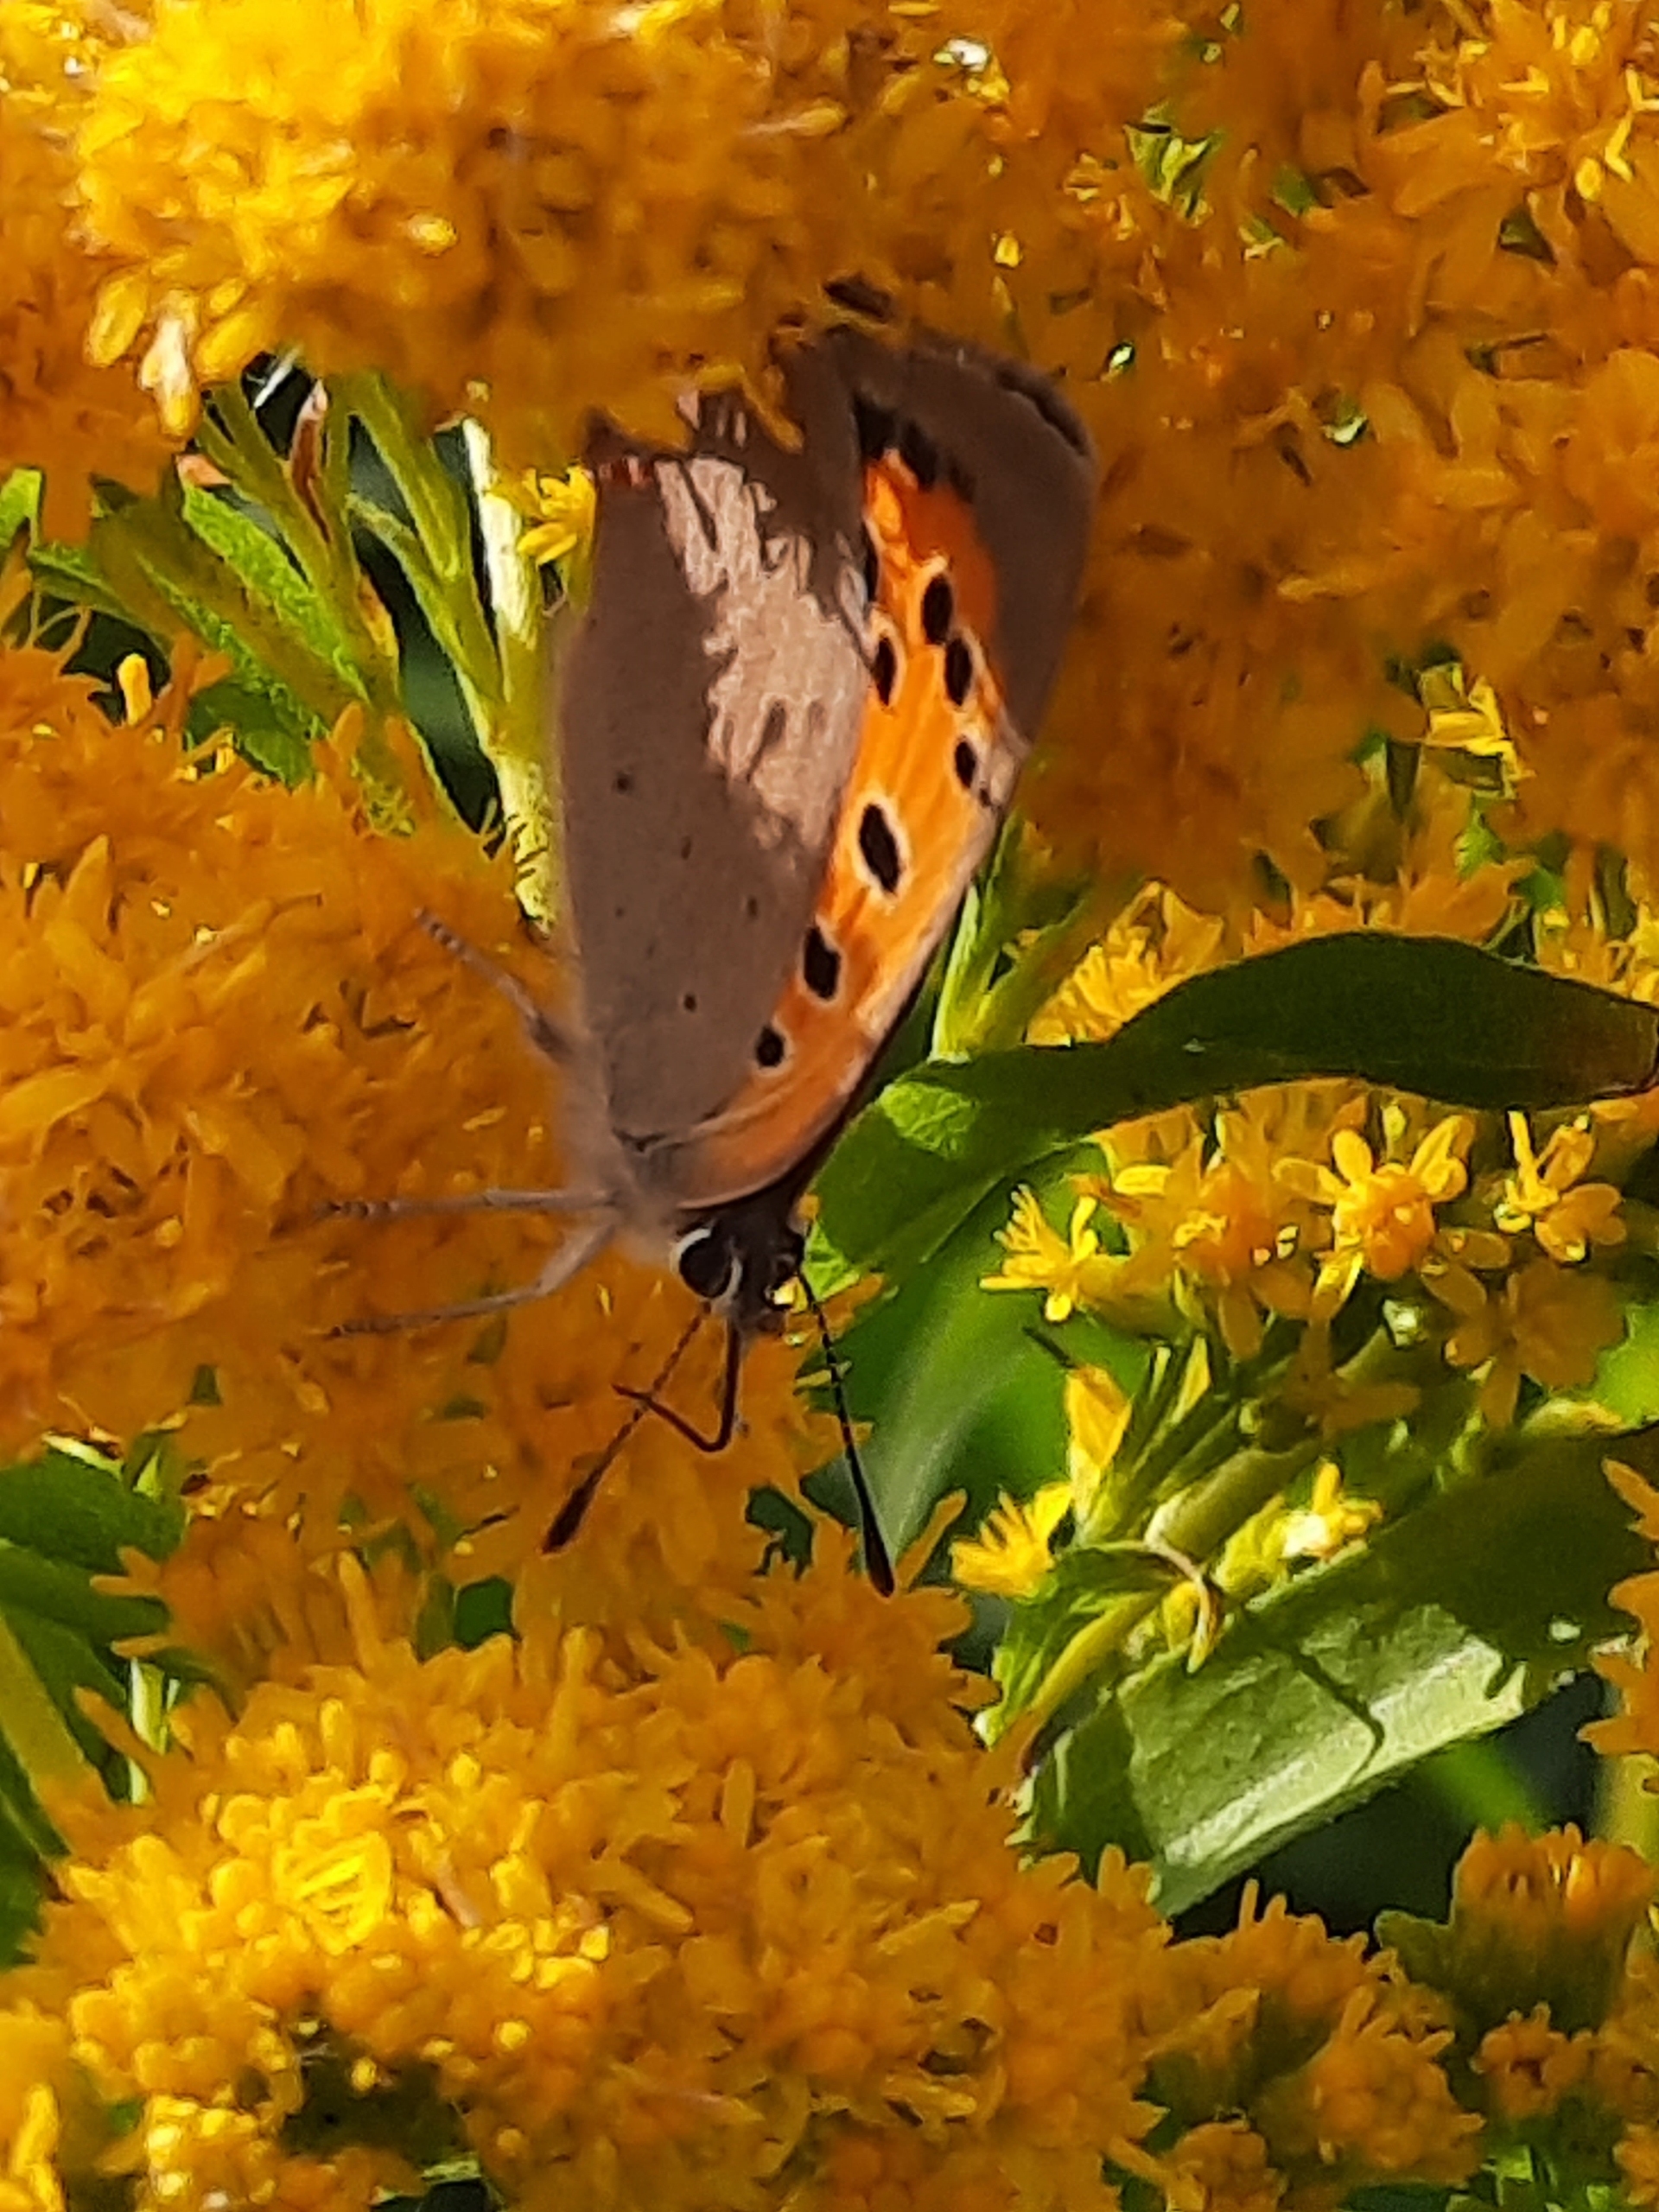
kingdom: Animalia
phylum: Arthropoda
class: Insecta
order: Lepidoptera
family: Lycaenidae
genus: Lycaena
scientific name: Lycaena phlaeas
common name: Lille ildfugl
